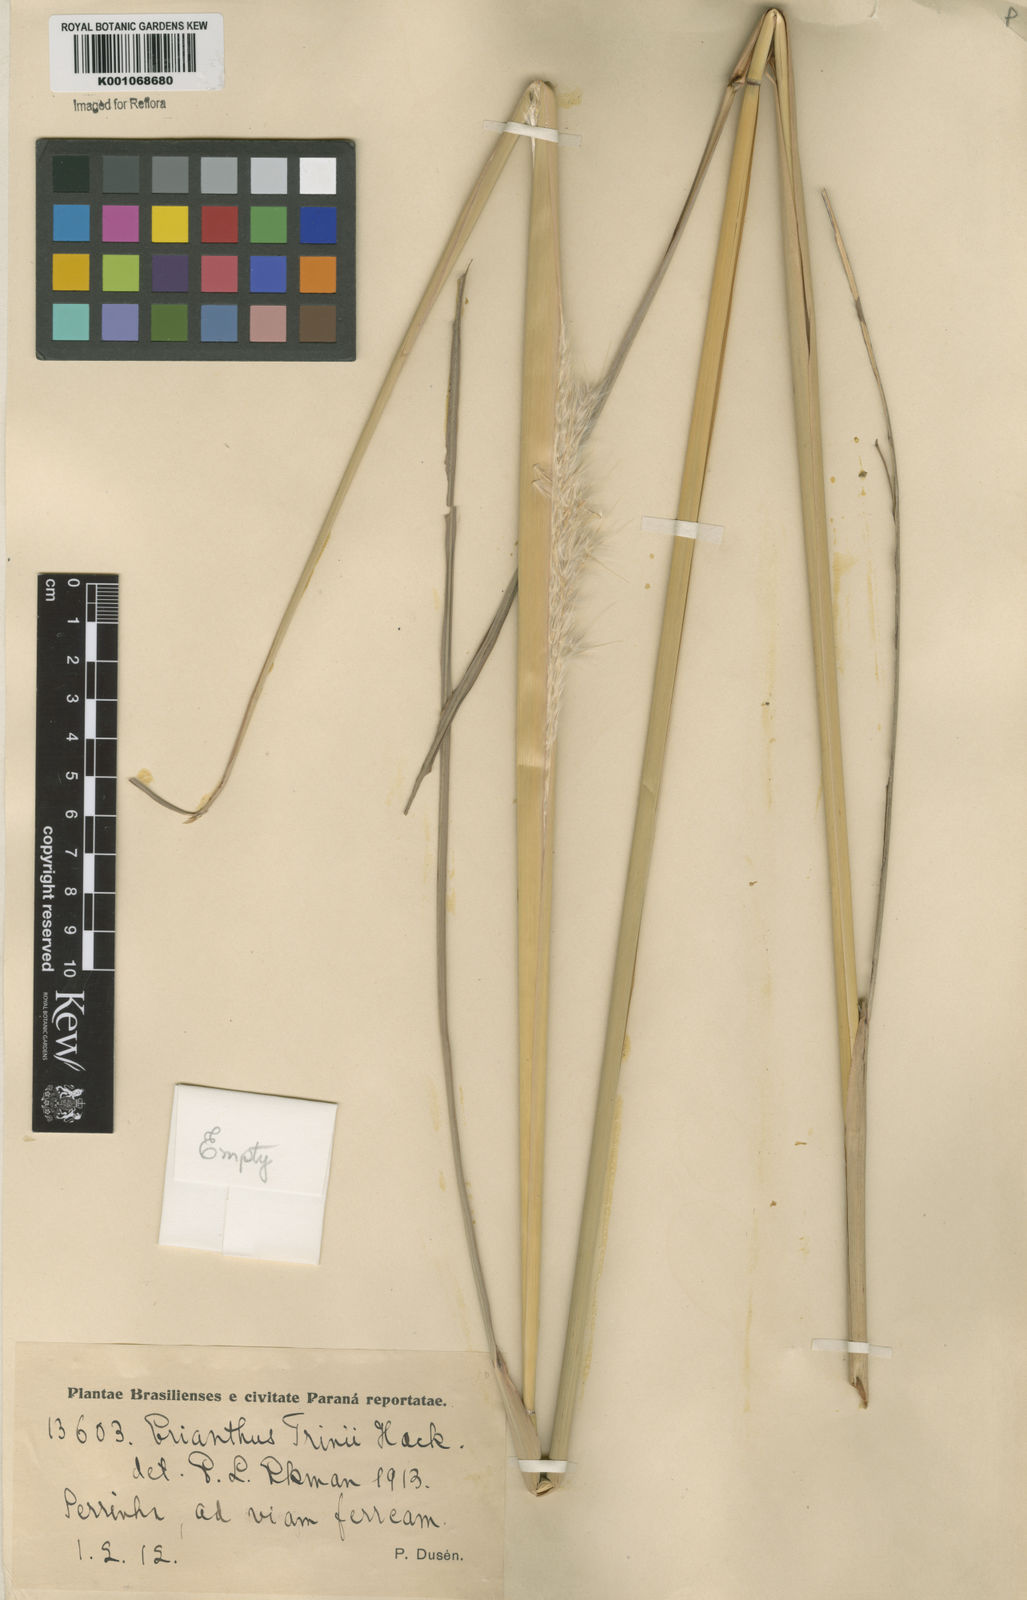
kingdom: Plantae
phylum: Tracheophyta
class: Liliopsida
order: Poales
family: Poaceae
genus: Erianthus
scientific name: Erianthus trinii
